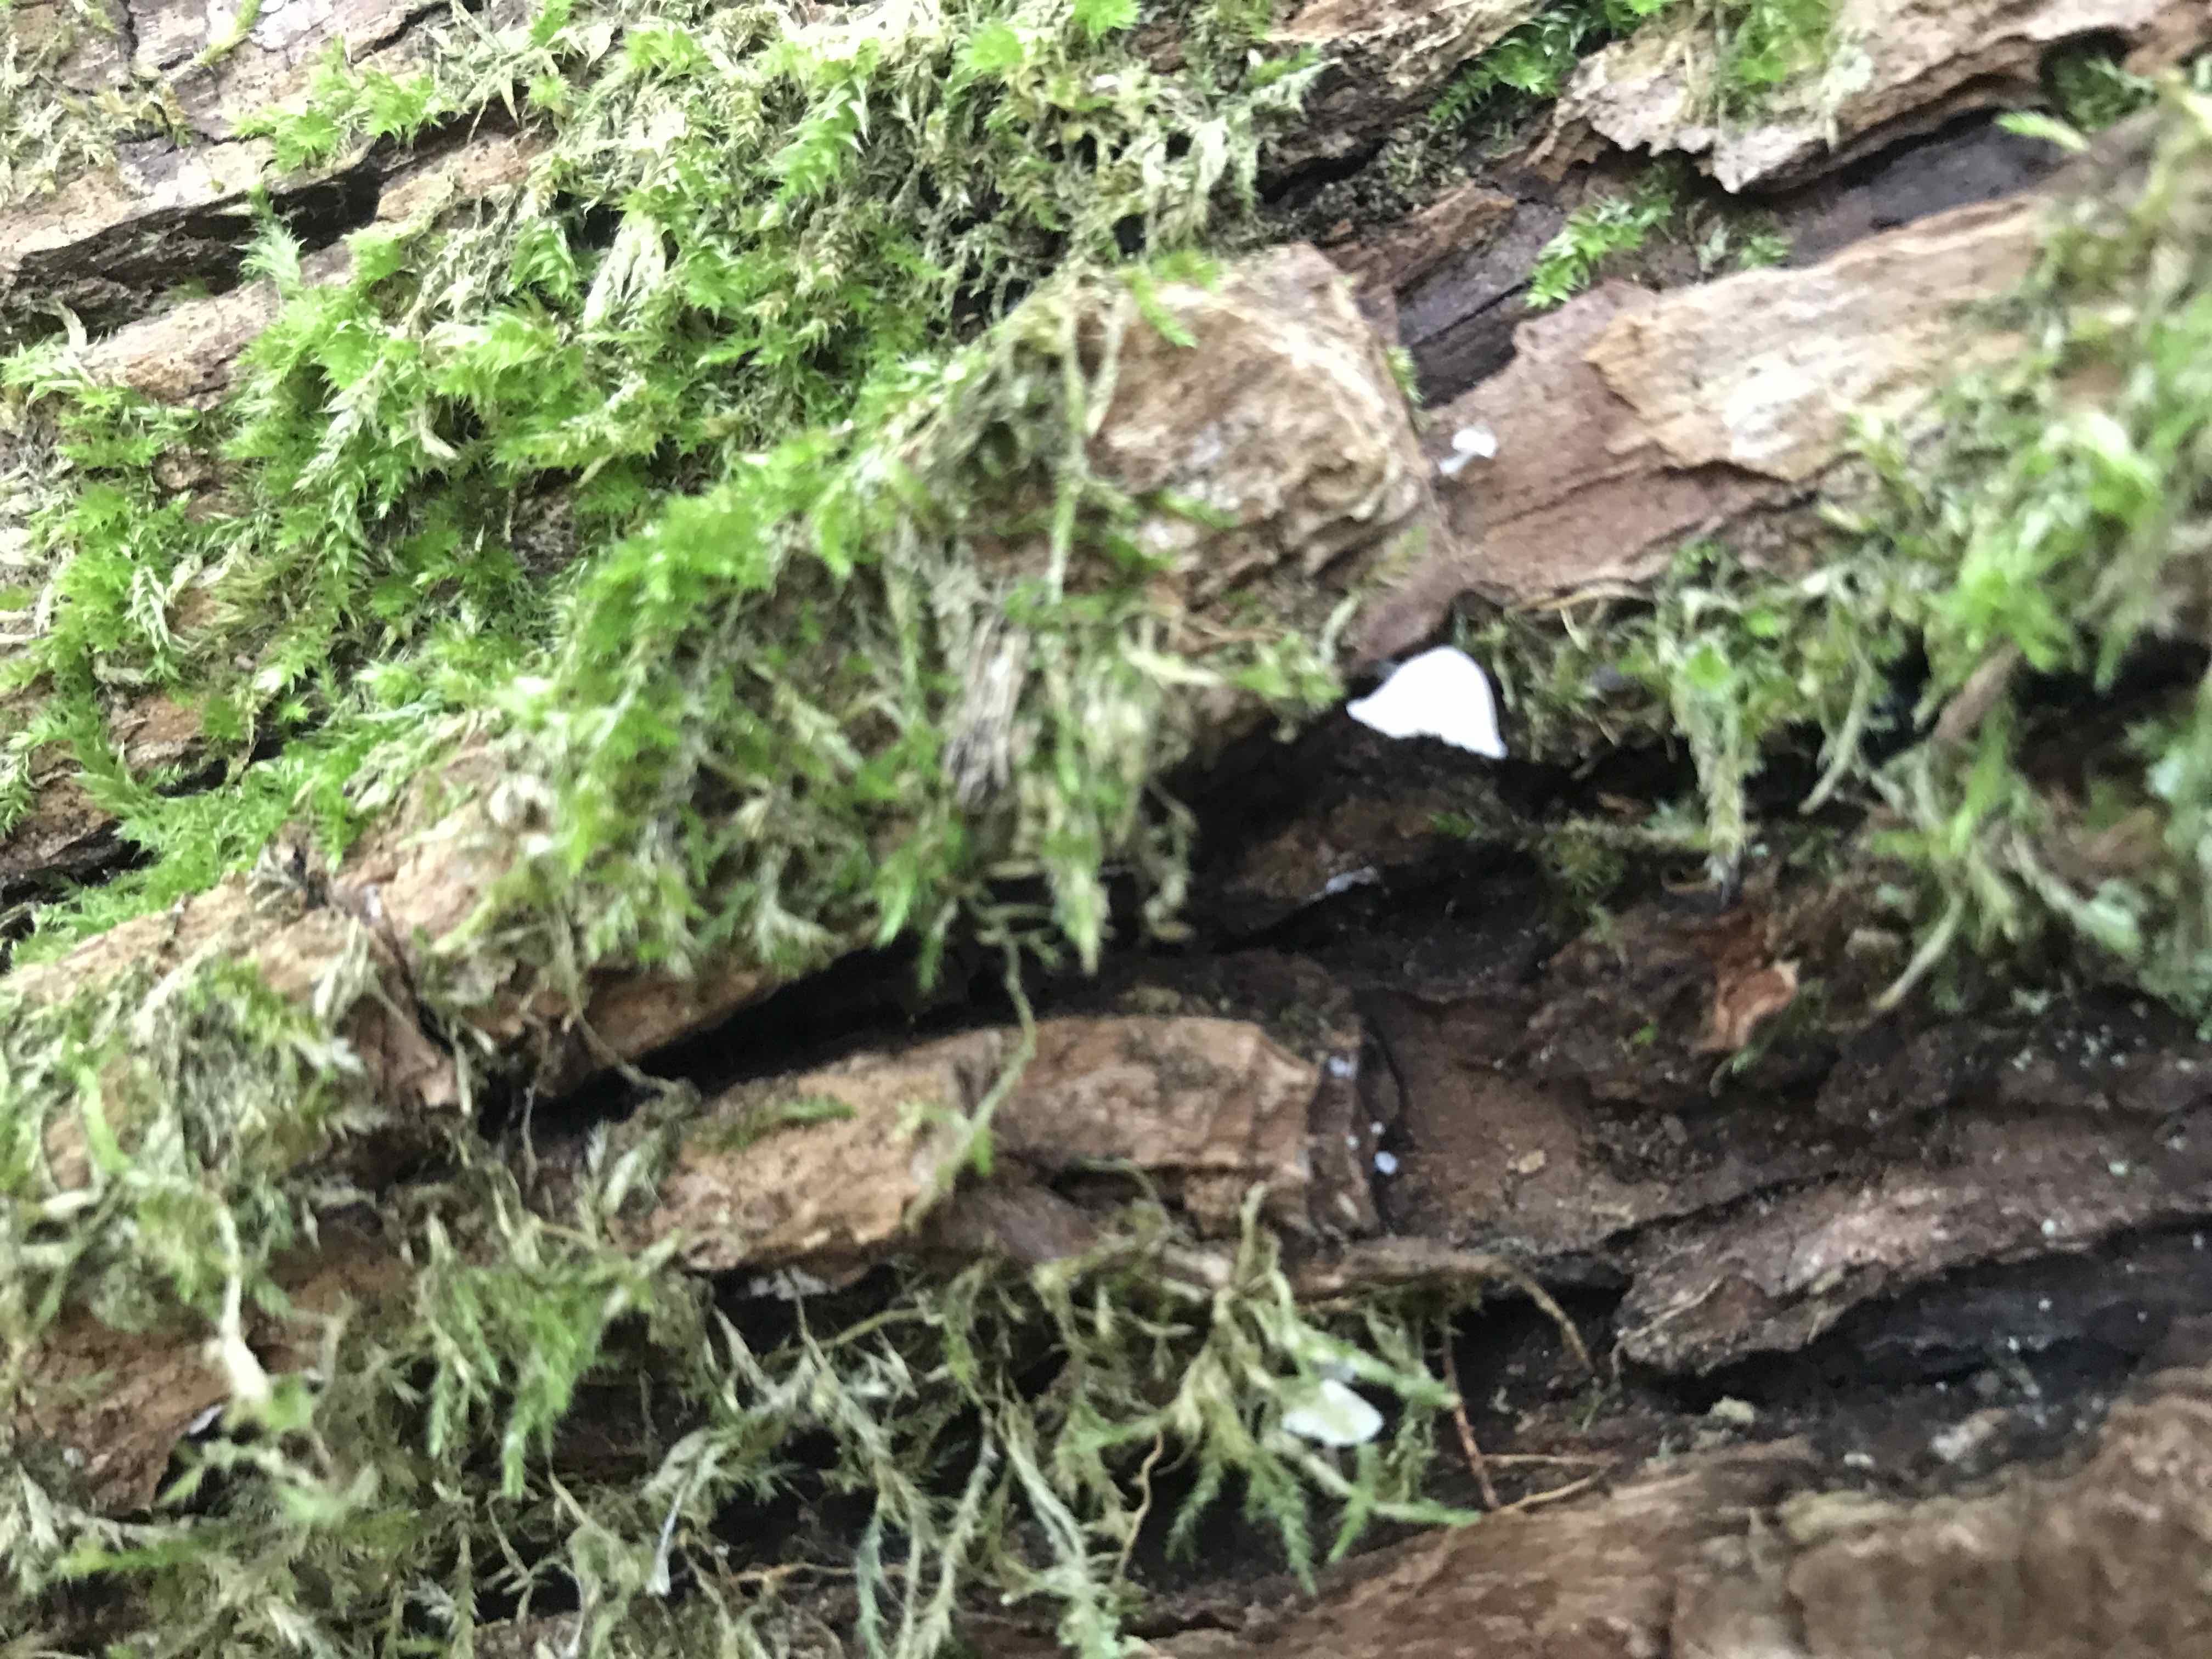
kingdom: Fungi
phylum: Basidiomycota
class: Agaricomycetes
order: Agaricales
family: Mycenaceae
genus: Mycena
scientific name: Mycena pseudocorticola
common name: gråblå bark-huesvamp
